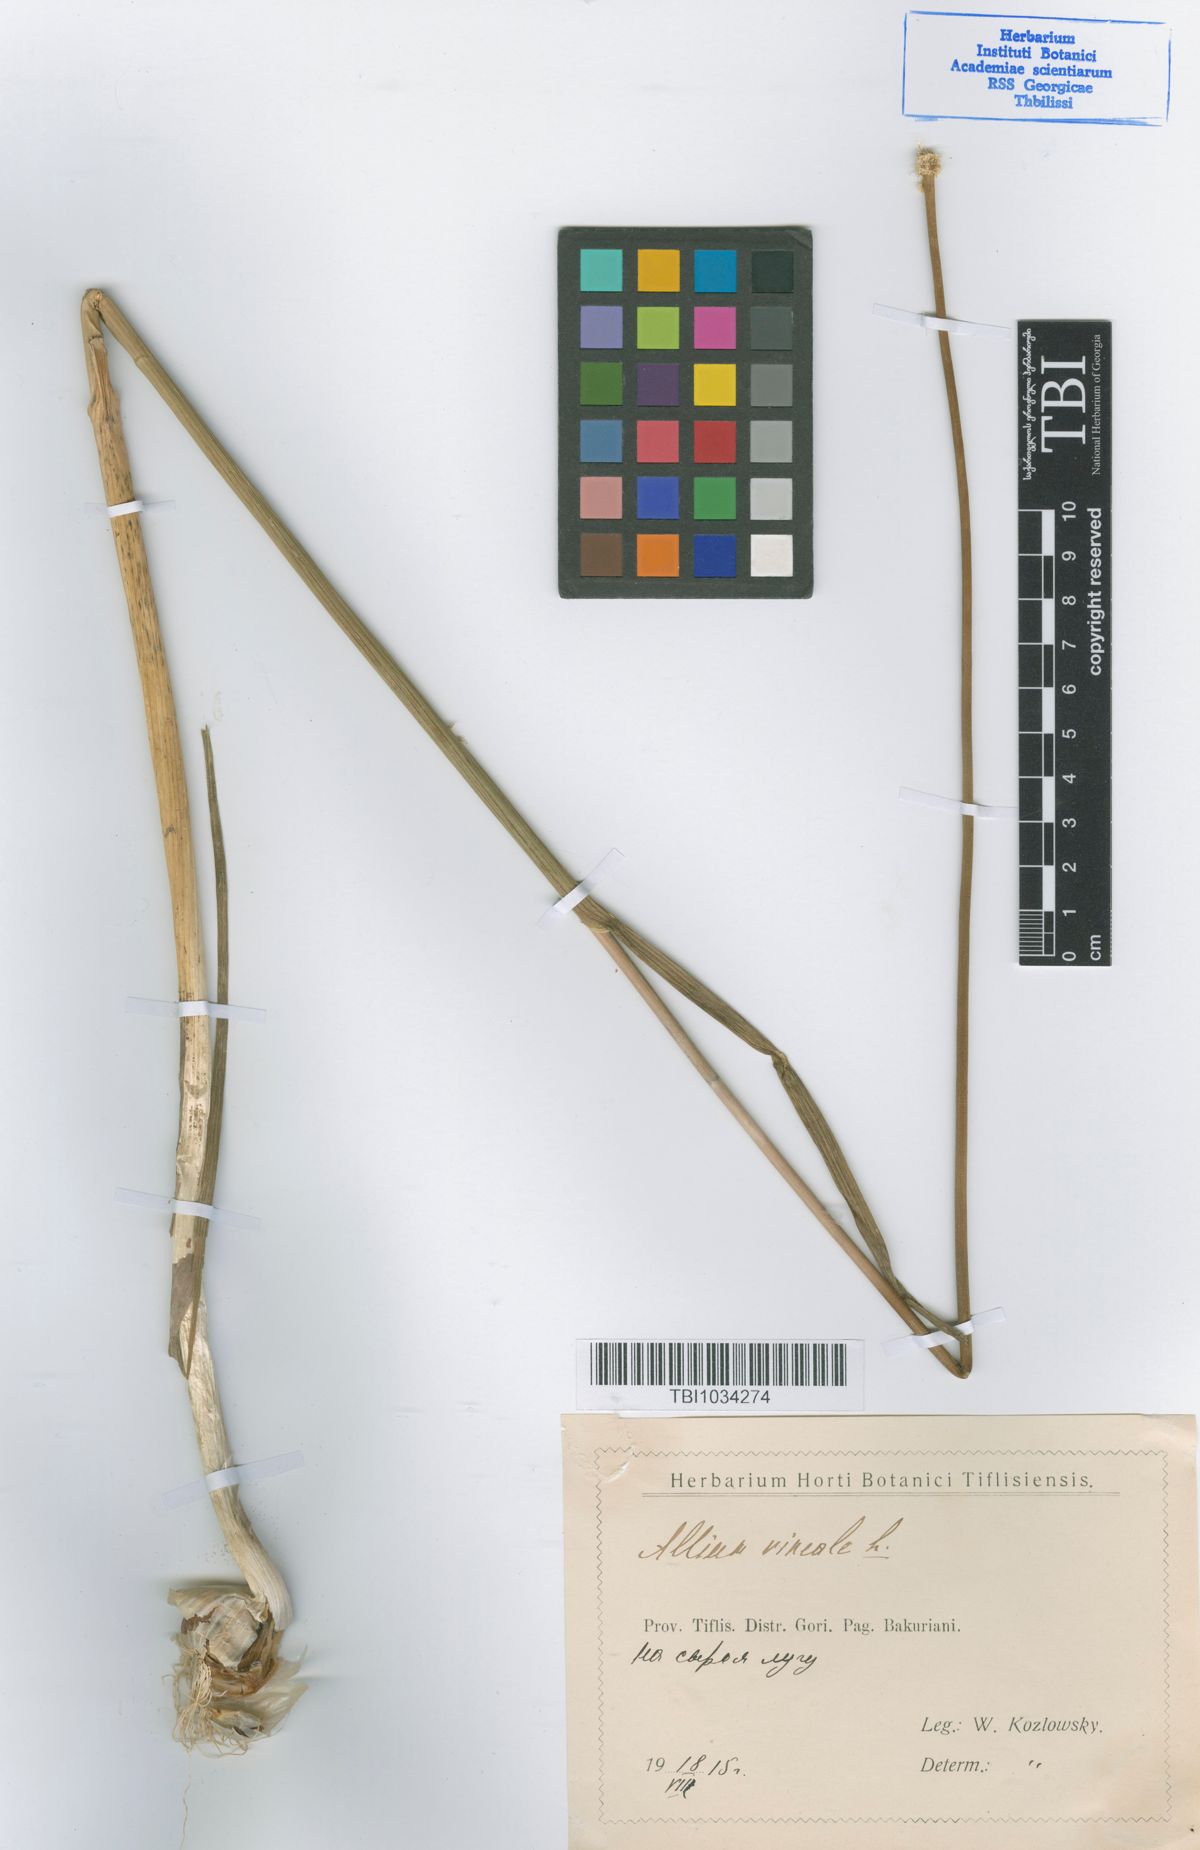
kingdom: Plantae
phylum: Tracheophyta
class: Liliopsida
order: Asparagales
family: Amaryllidaceae
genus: Allium
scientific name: Allium vineale
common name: Crow garlic
